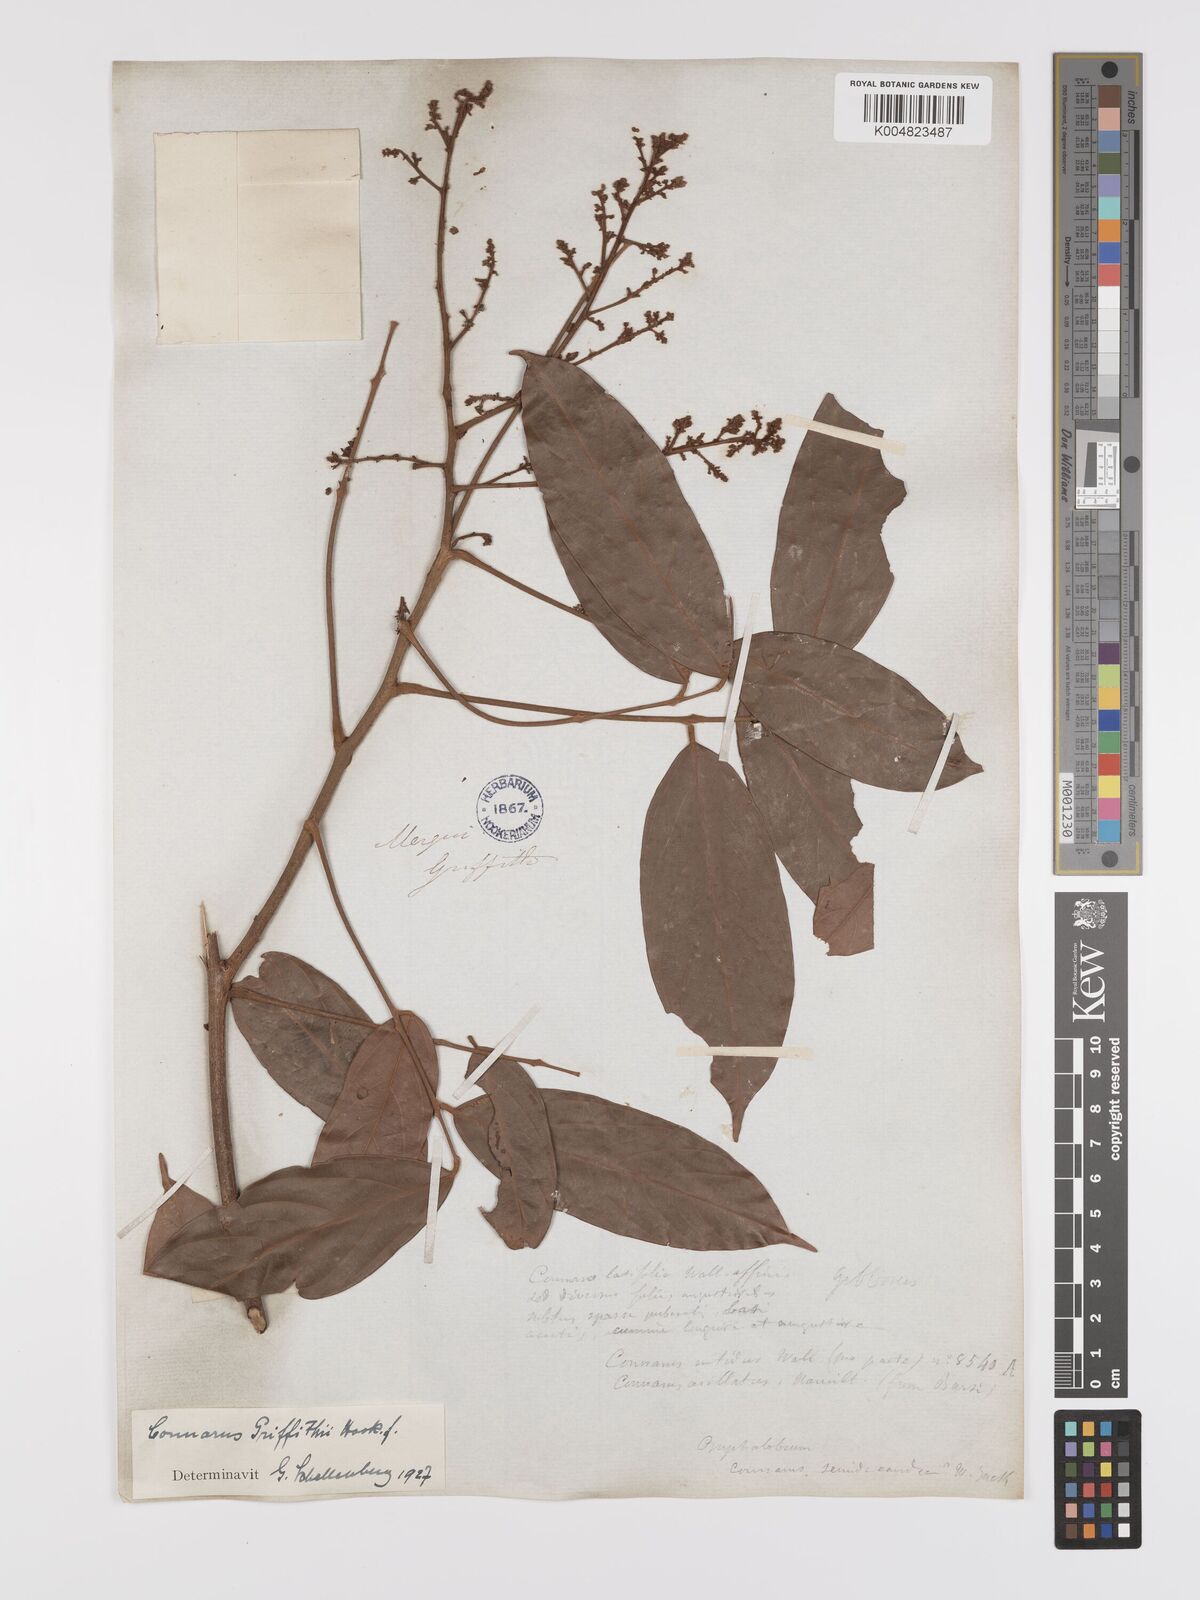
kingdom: Plantae
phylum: Tracheophyta
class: Magnoliopsida
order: Oxalidales
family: Connaraceae
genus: Connarus
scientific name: Connarus semidecandrus
